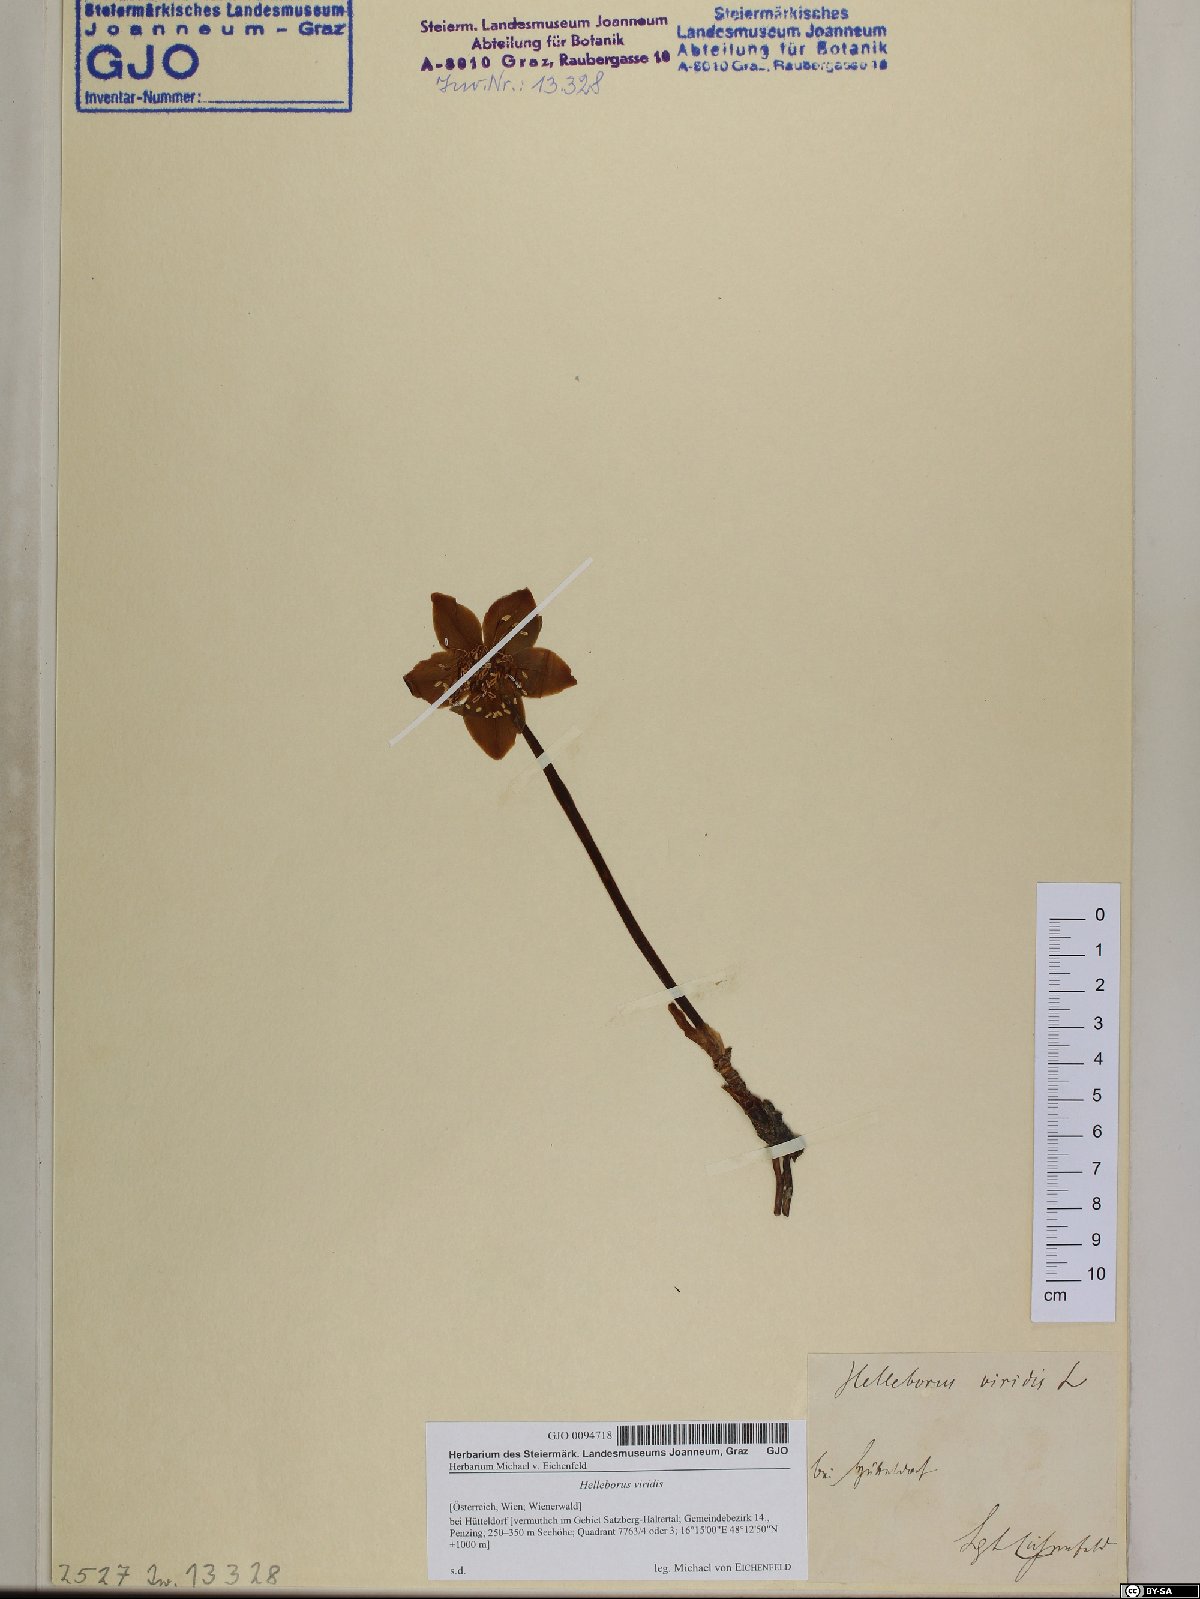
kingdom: Plantae
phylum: Tracheophyta
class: Magnoliopsida
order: Ranunculales
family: Ranunculaceae
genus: Helleborus
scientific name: Helleborus viridis
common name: Green hellebore
